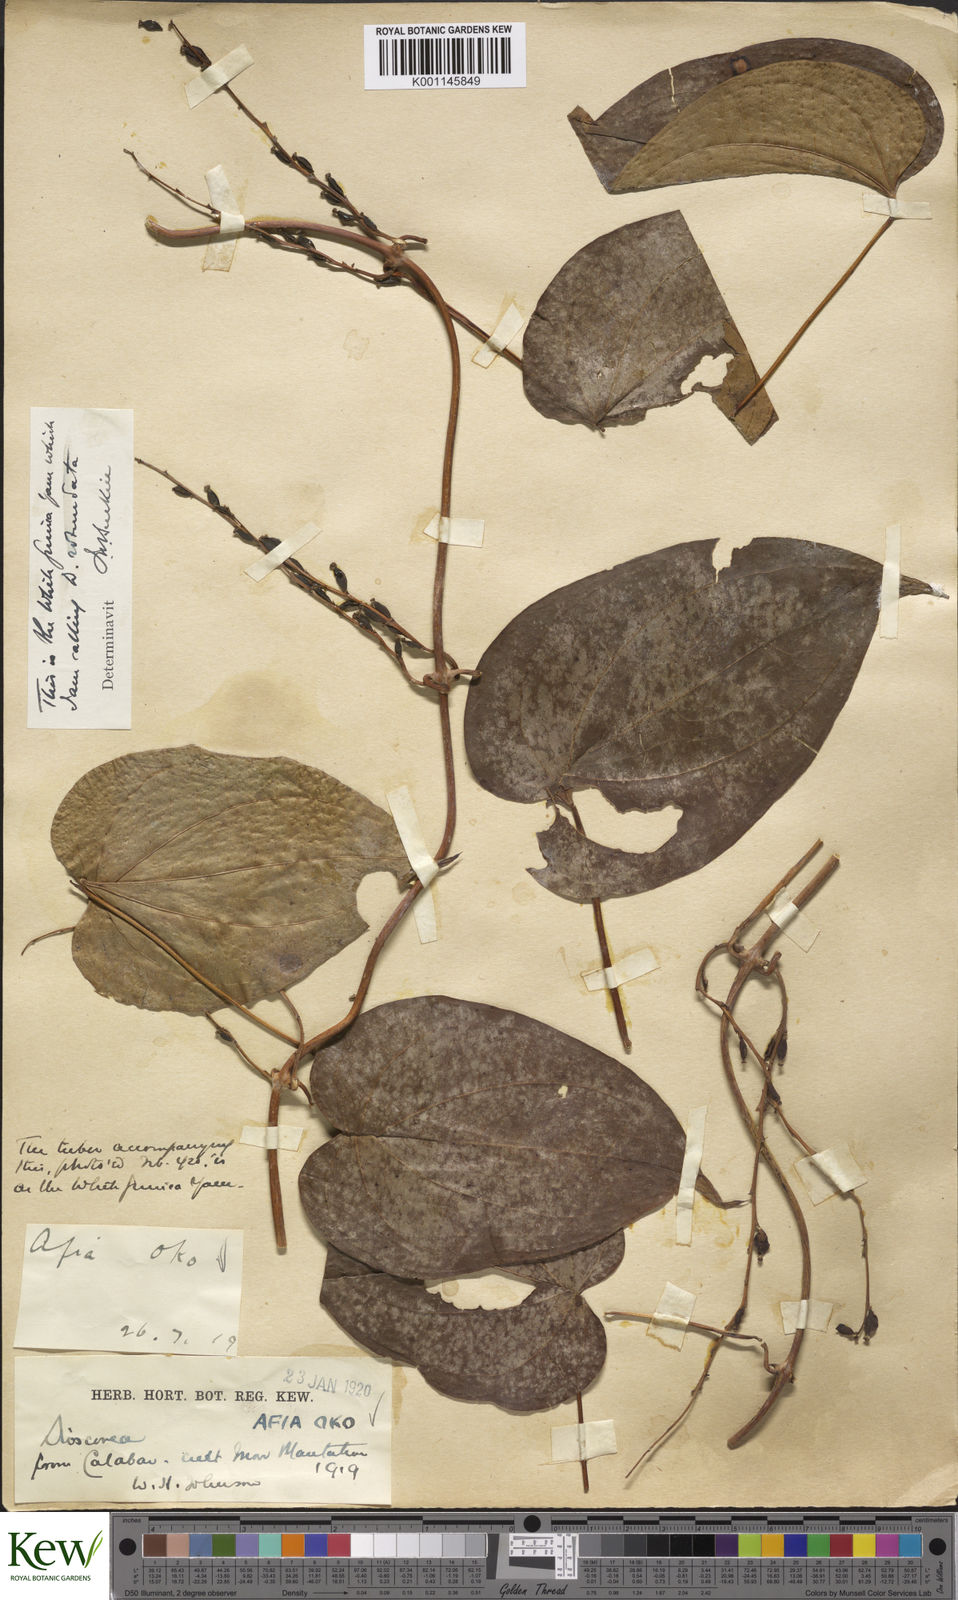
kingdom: Plantae
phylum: Tracheophyta
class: Liliopsida
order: Dioscoreales
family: Dioscoreaceae
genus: Dioscorea
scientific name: Dioscorea cayenensis
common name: Attoto yam
